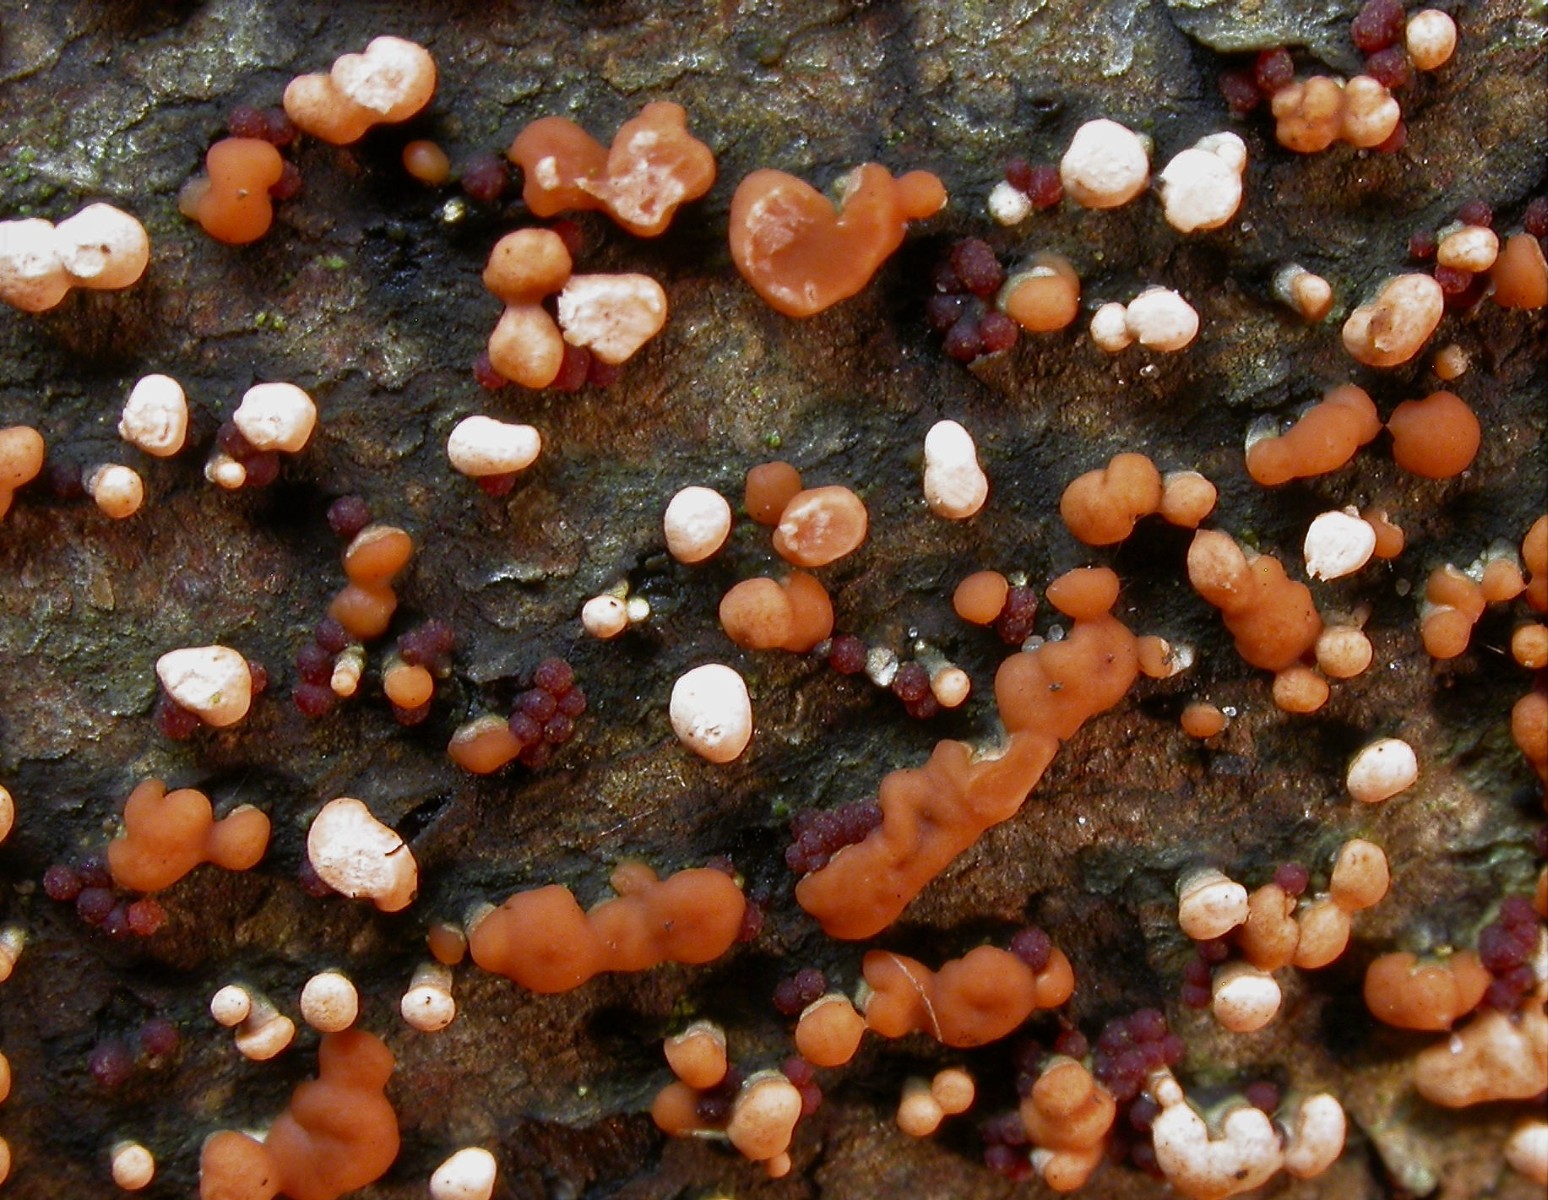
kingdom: Fungi
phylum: Ascomycota
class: Sordariomycetes
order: Hypocreales
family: Nectriaceae
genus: Nectria
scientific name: Nectria cinnabarina
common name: almindelig cinnobersvamp
